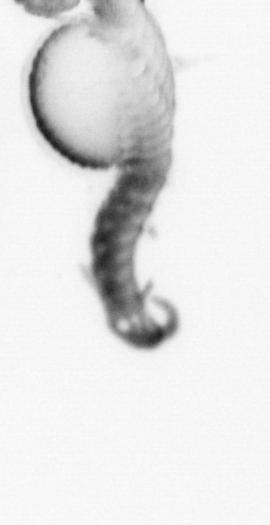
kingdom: Animalia
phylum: Annelida
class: Polychaeta
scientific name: Polychaeta
